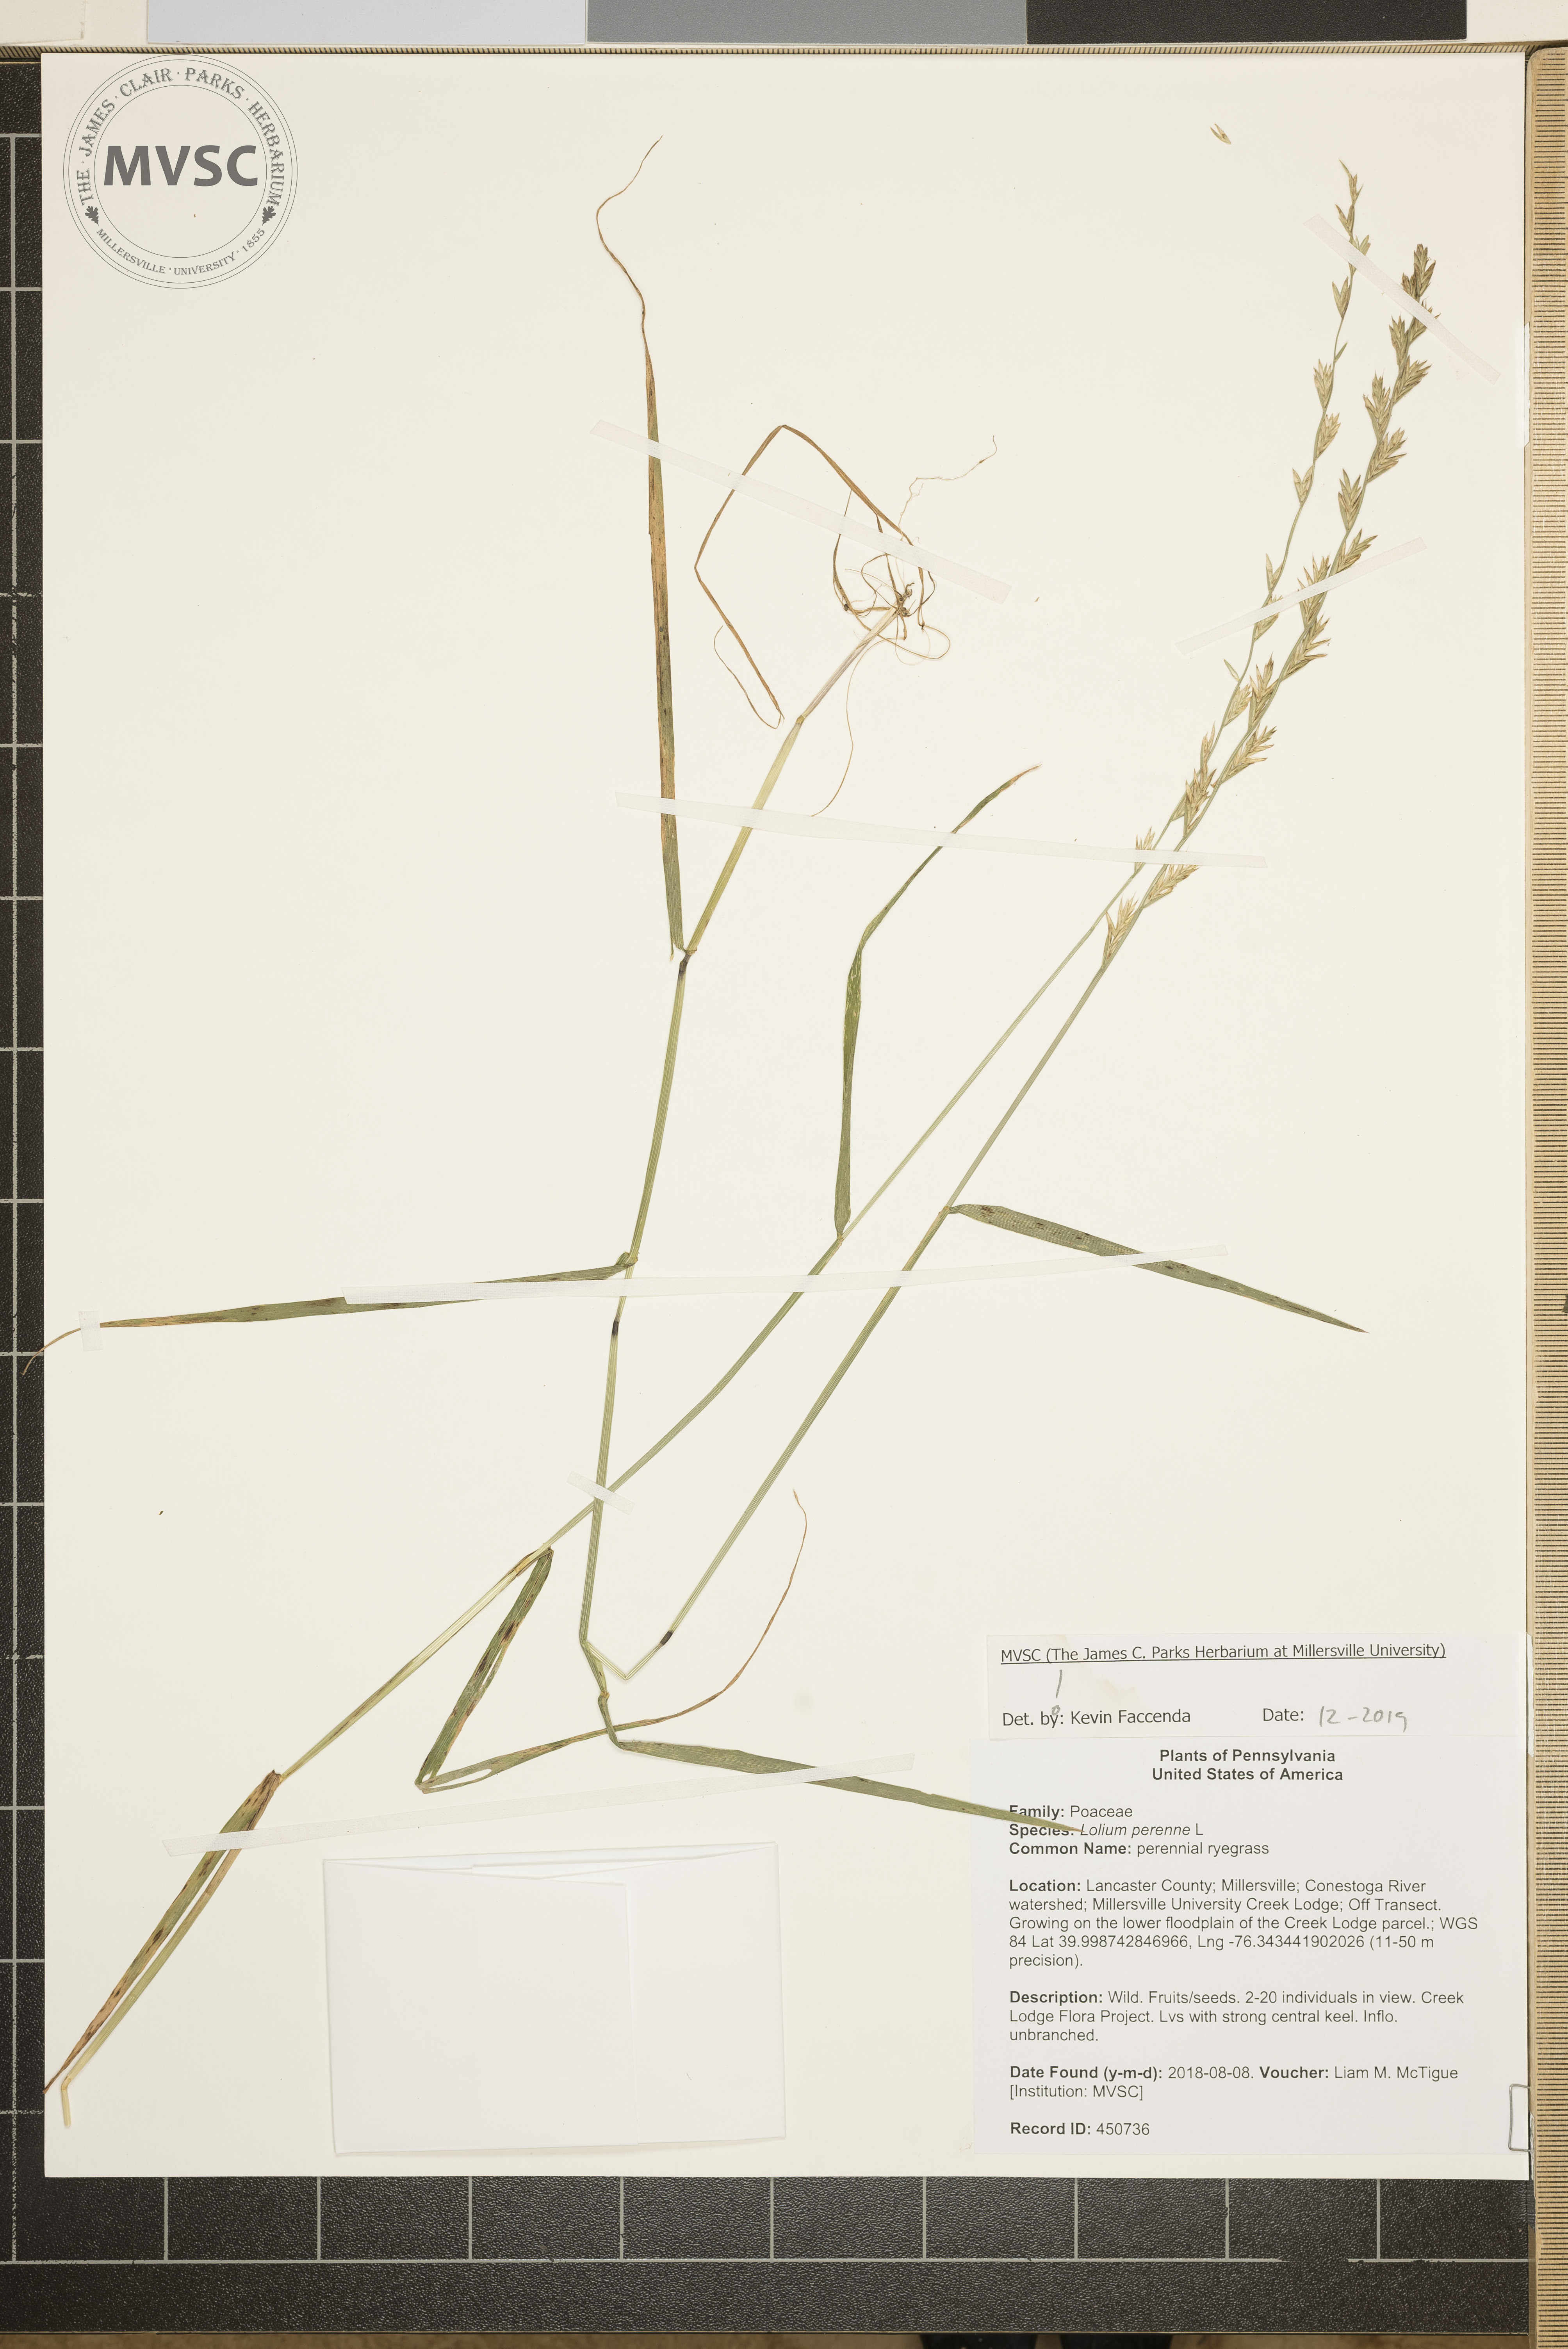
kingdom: Plantae
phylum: Tracheophyta
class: Liliopsida
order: Poales
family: Poaceae
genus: Lolium
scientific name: Lolium perenne
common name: perennial ryegrass
